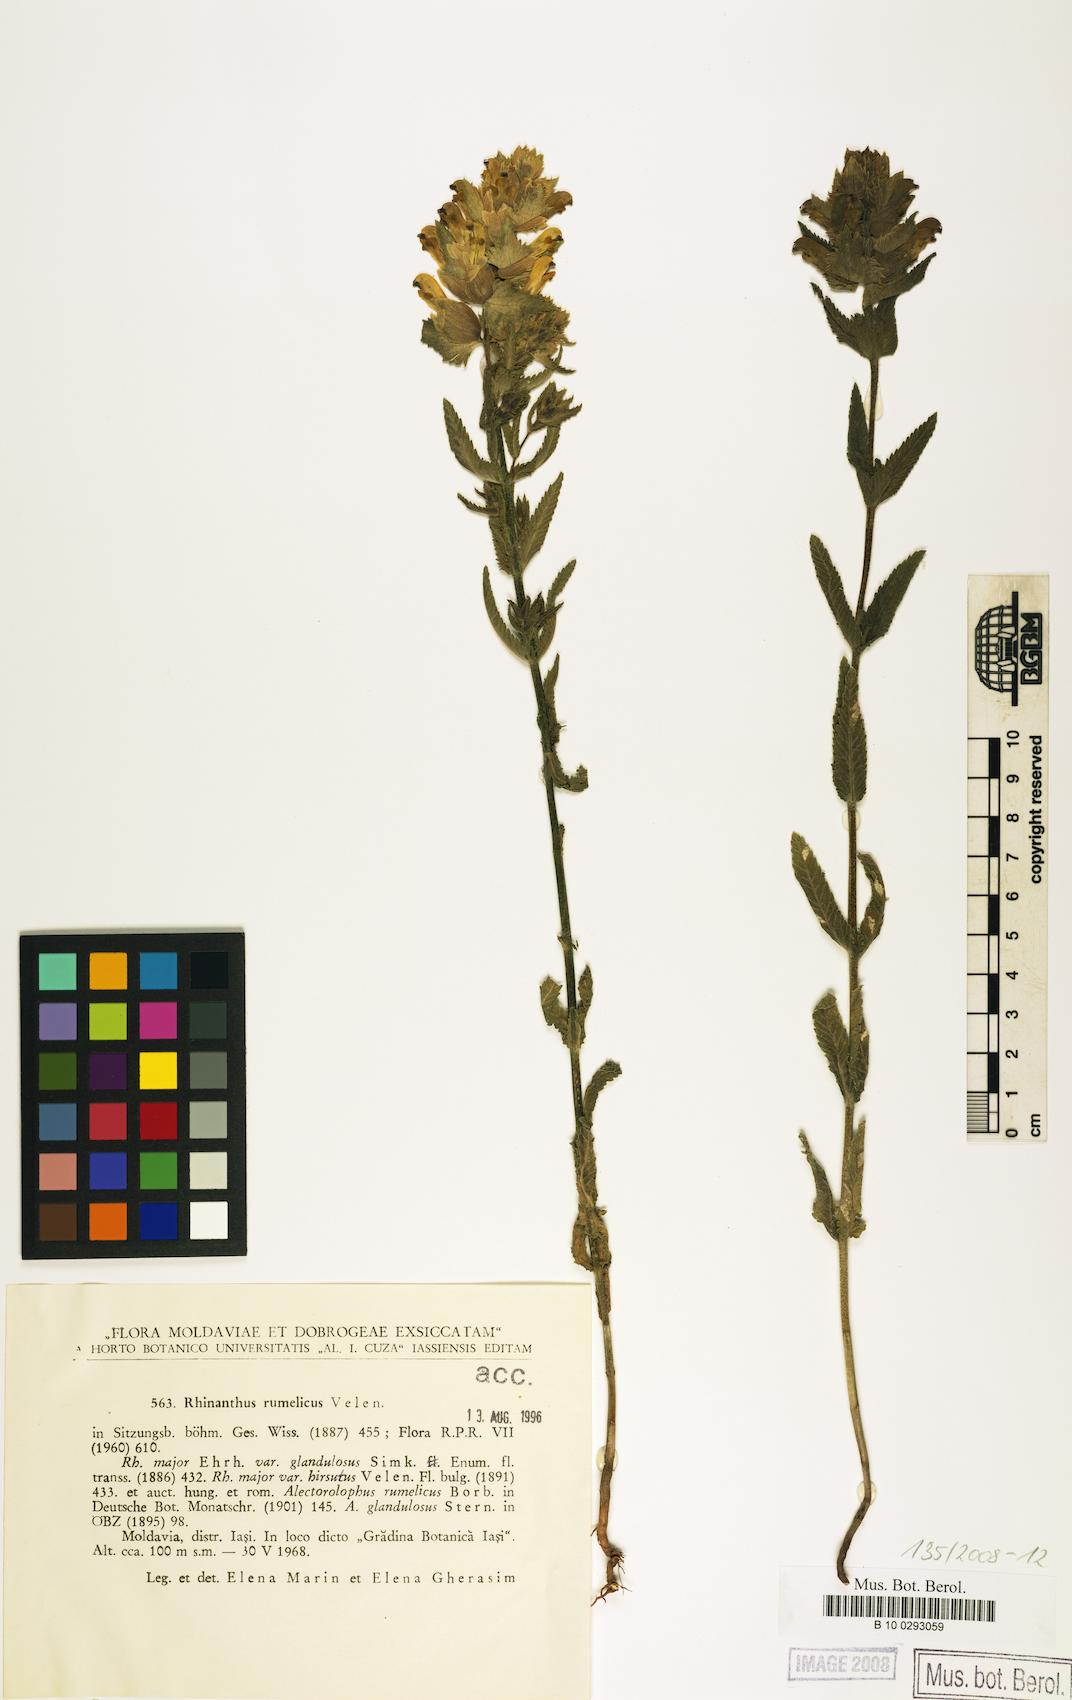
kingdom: Plantae
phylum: Tracheophyta
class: Magnoliopsida
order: Lamiales
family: Orobanchaceae
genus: Rhinanthus
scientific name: Rhinanthus rumelicus
